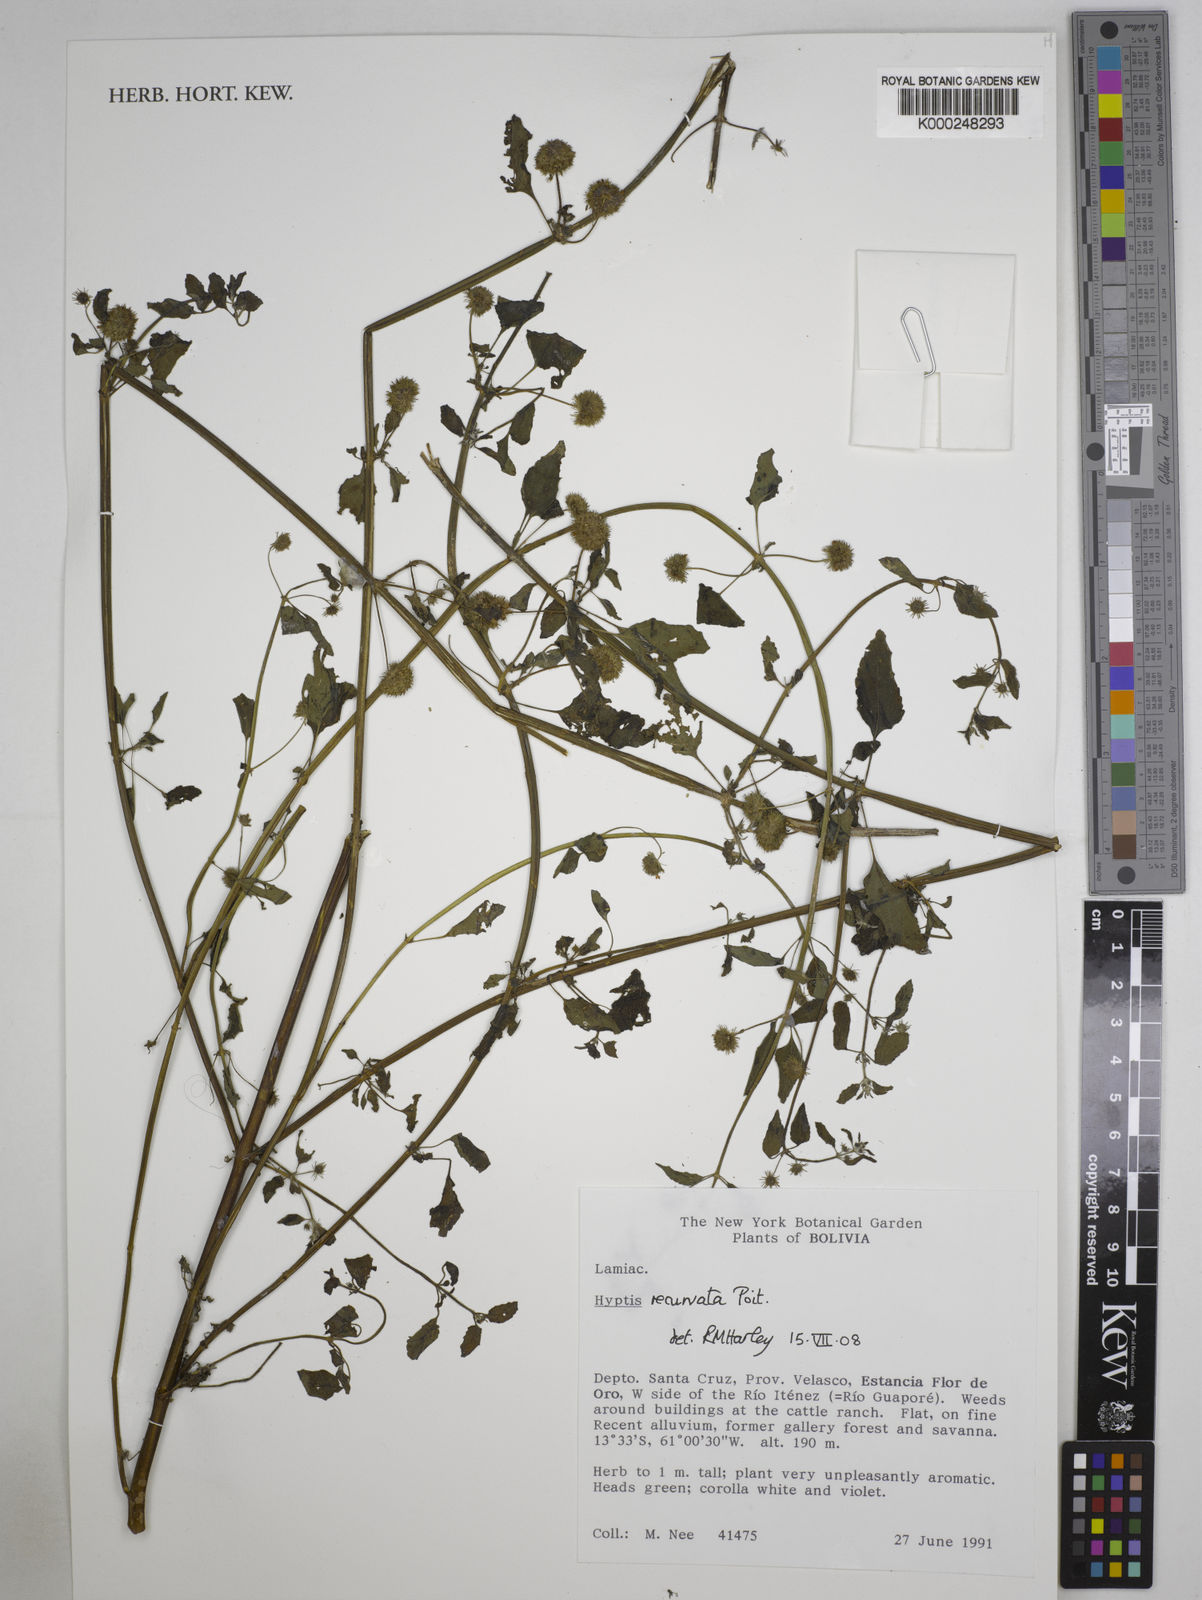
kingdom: Plantae
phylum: Tracheophyta
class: Magnoliopsida
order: Lamiales
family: Lamiaceae
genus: Hyptis
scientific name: Hyptis recurvata
